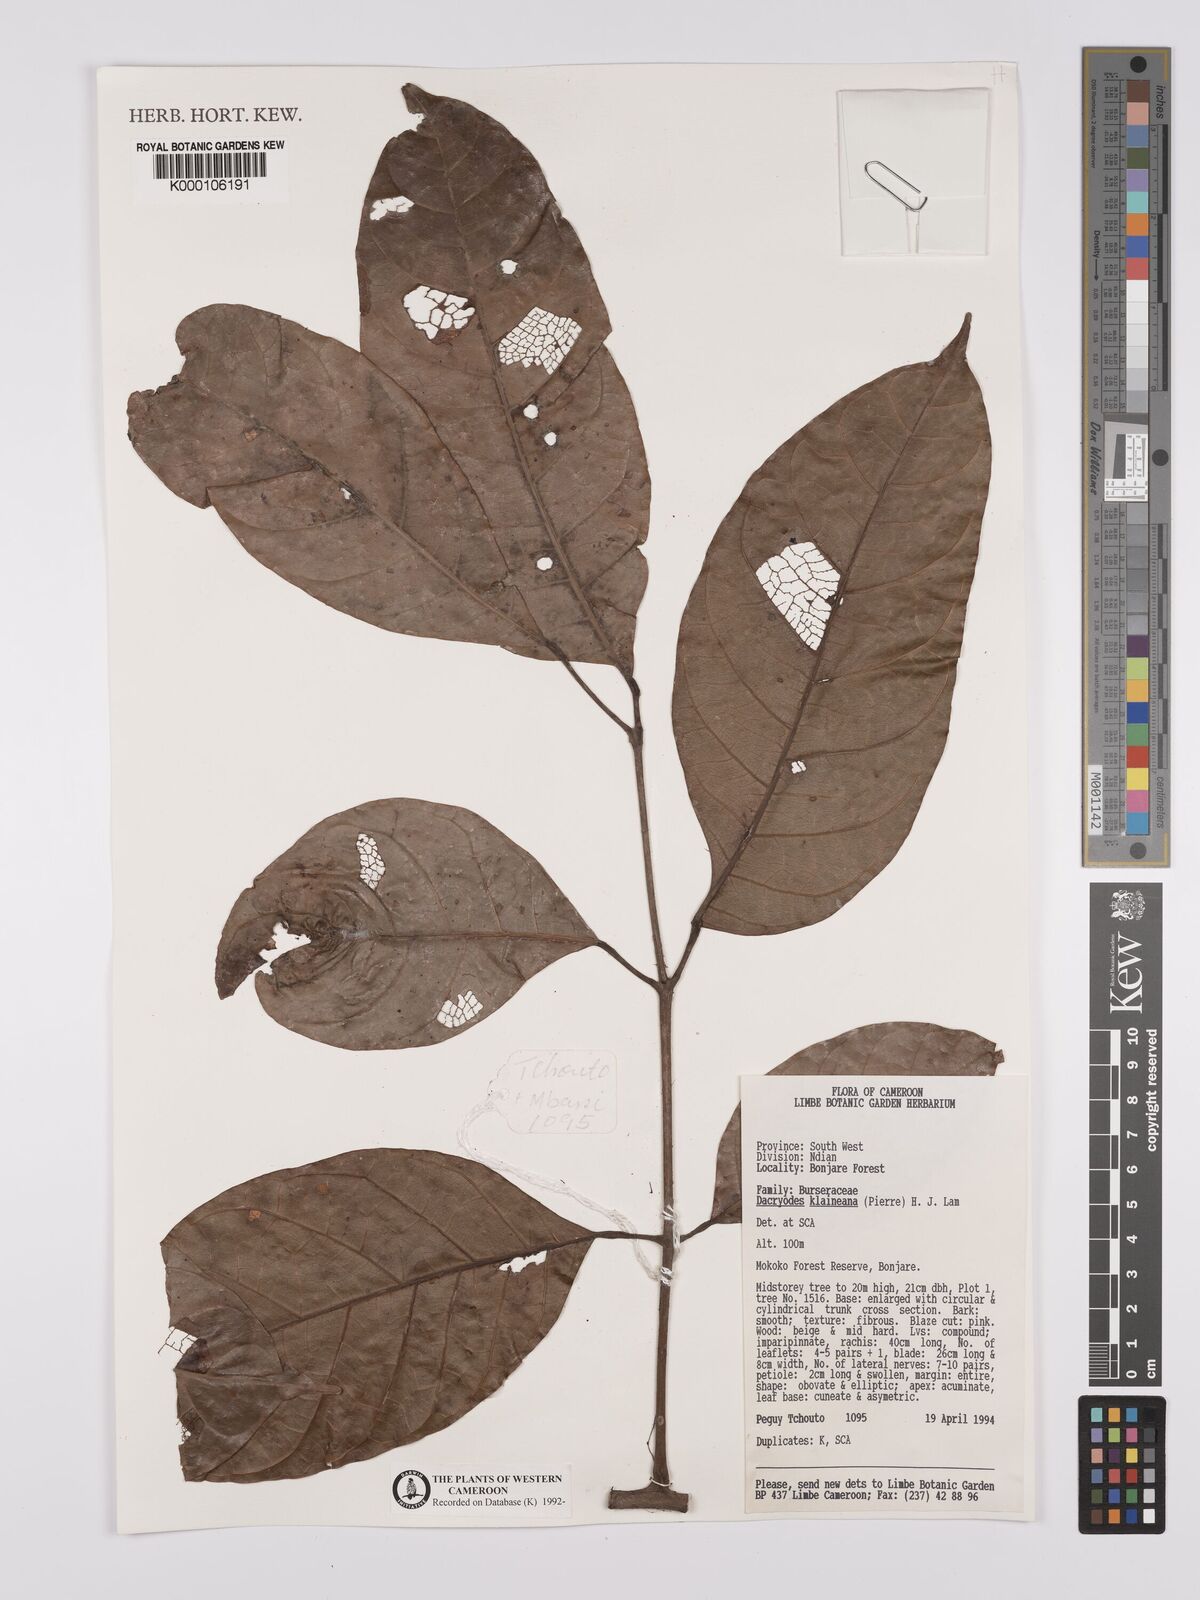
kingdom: Plantae
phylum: Tracheophyta
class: Magnoliopsida
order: Sapindales
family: Burseraceae
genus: Pachylobus
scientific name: Pachylobus klaineana
